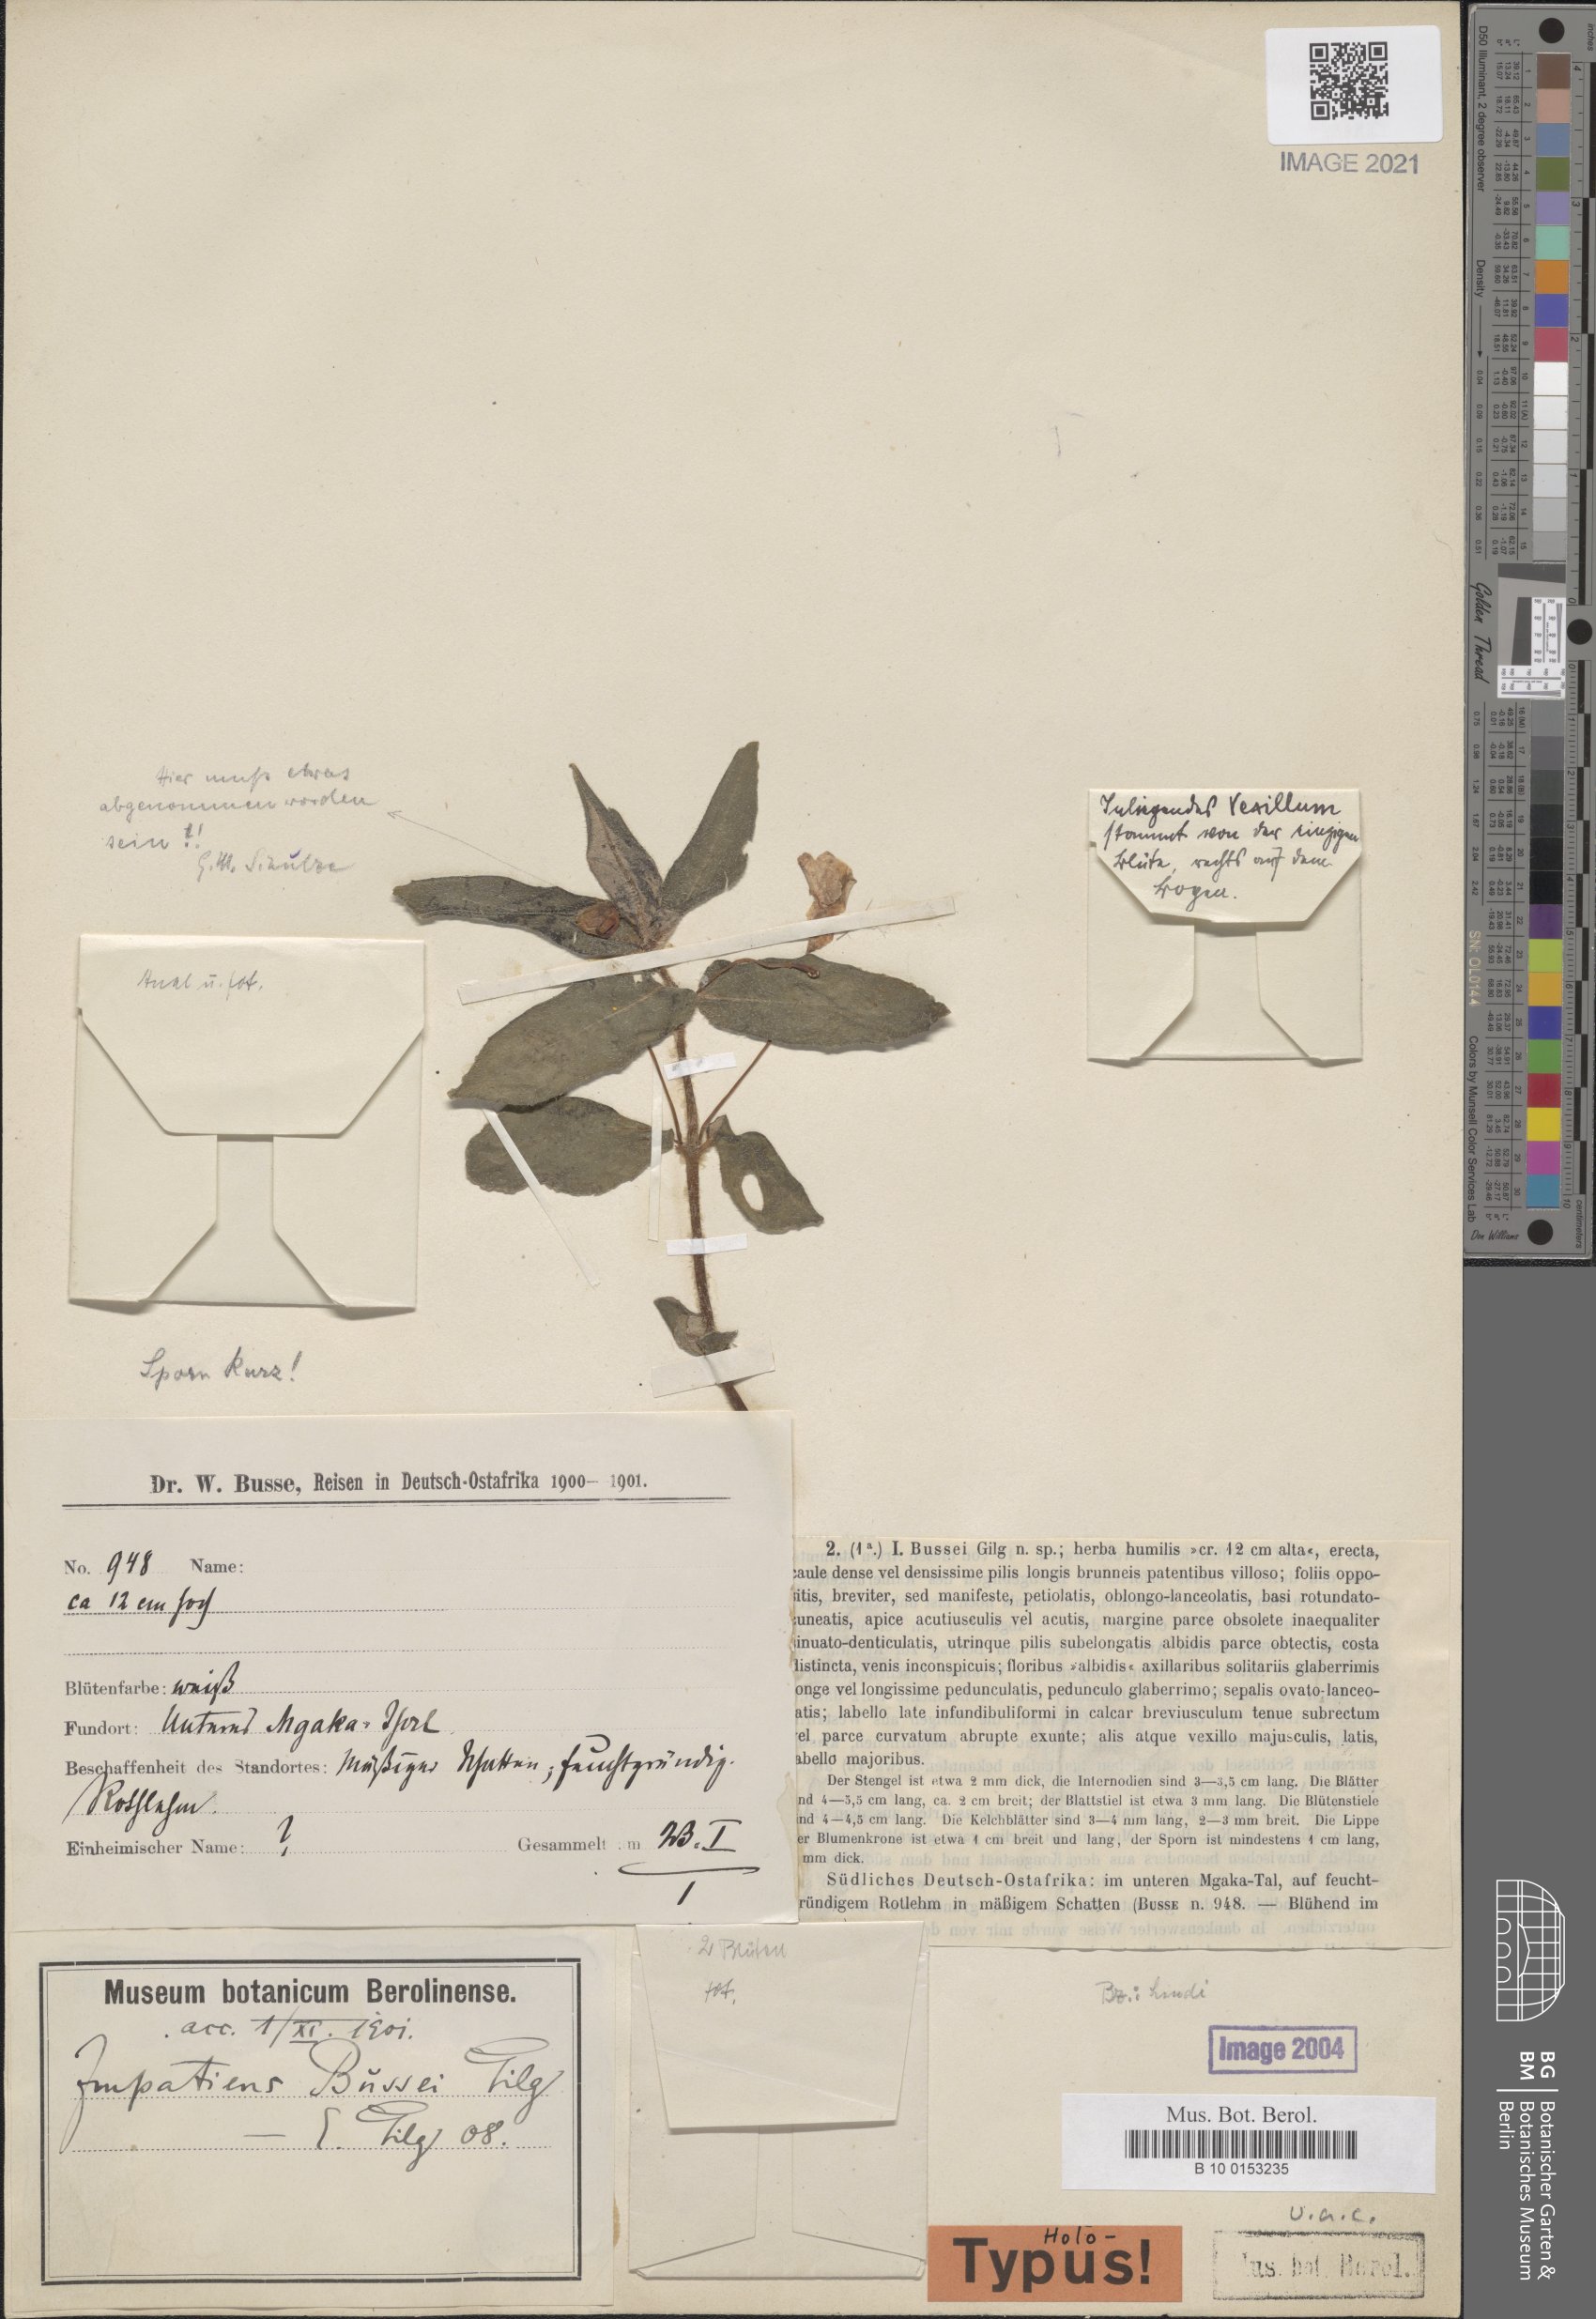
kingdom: Plantae
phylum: Tracheophyta
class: Magnoliopsida
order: Ericales
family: Balsaminaceae
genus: Impatiens
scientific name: Impatiens assurgens
